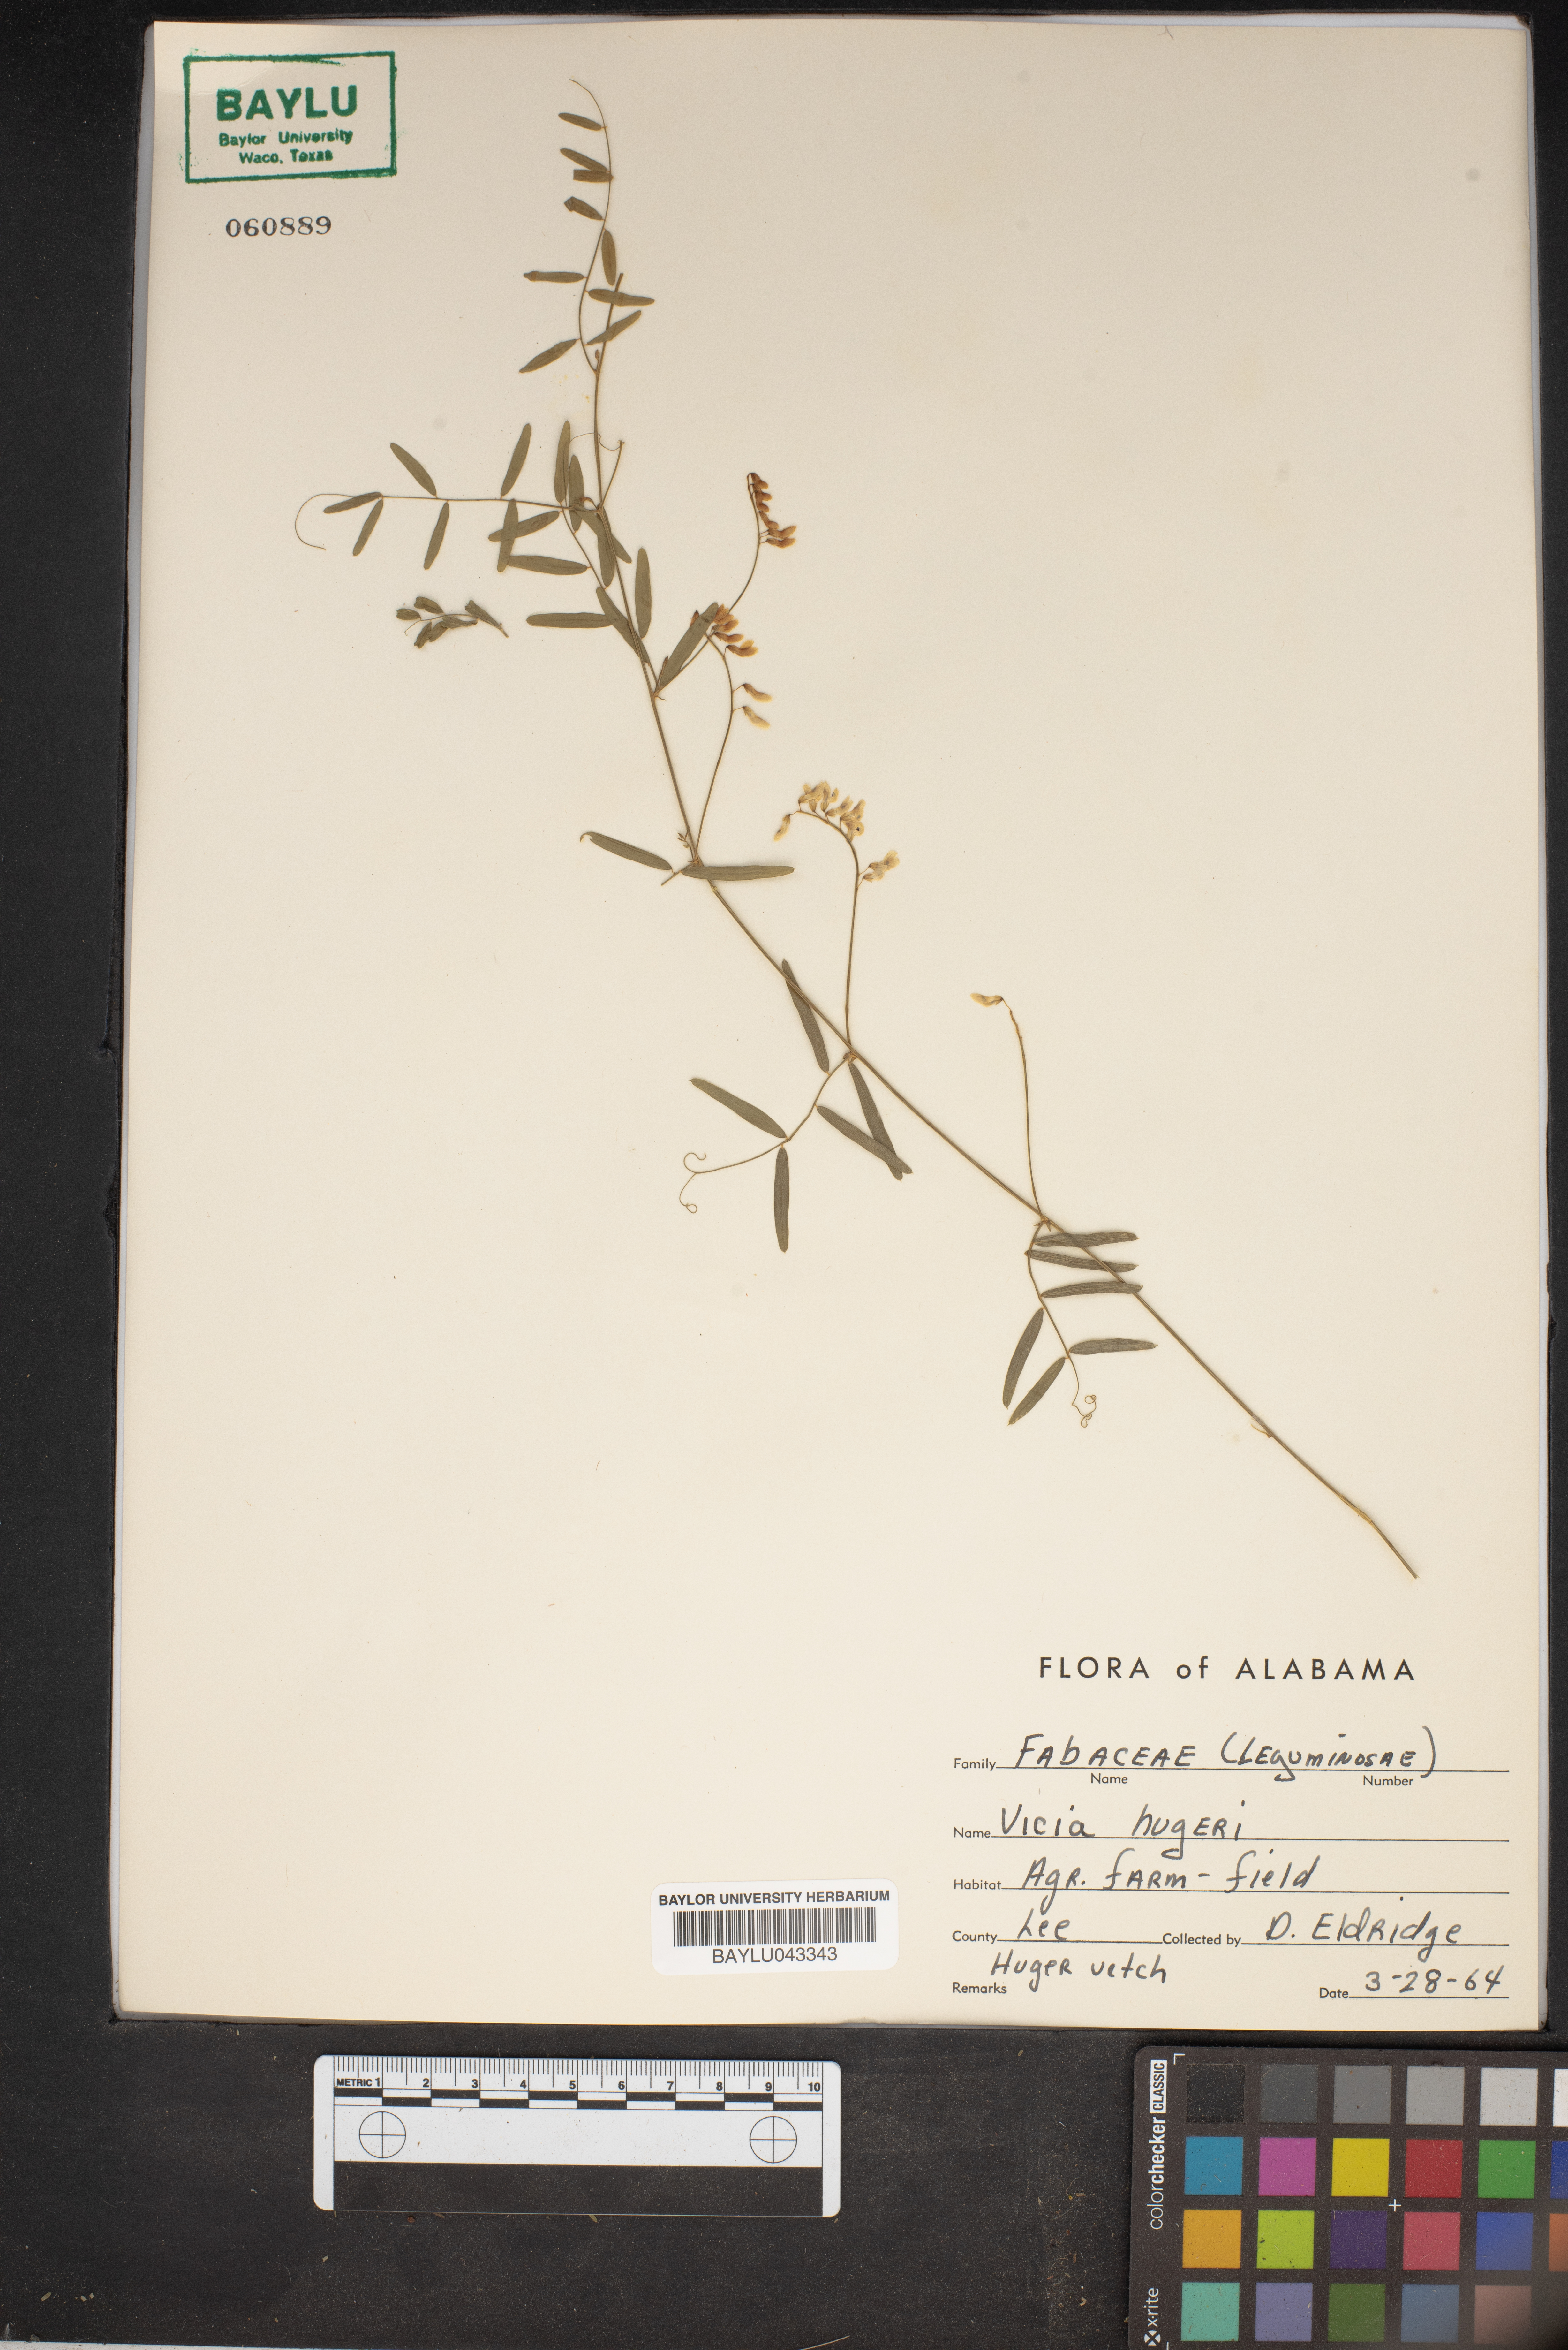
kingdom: Plantae
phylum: Tracheophyta
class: Magnoliopsida
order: Fabales
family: Fabaceae
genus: Vicia
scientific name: Vicia caroliniana
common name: Carolina vetch
